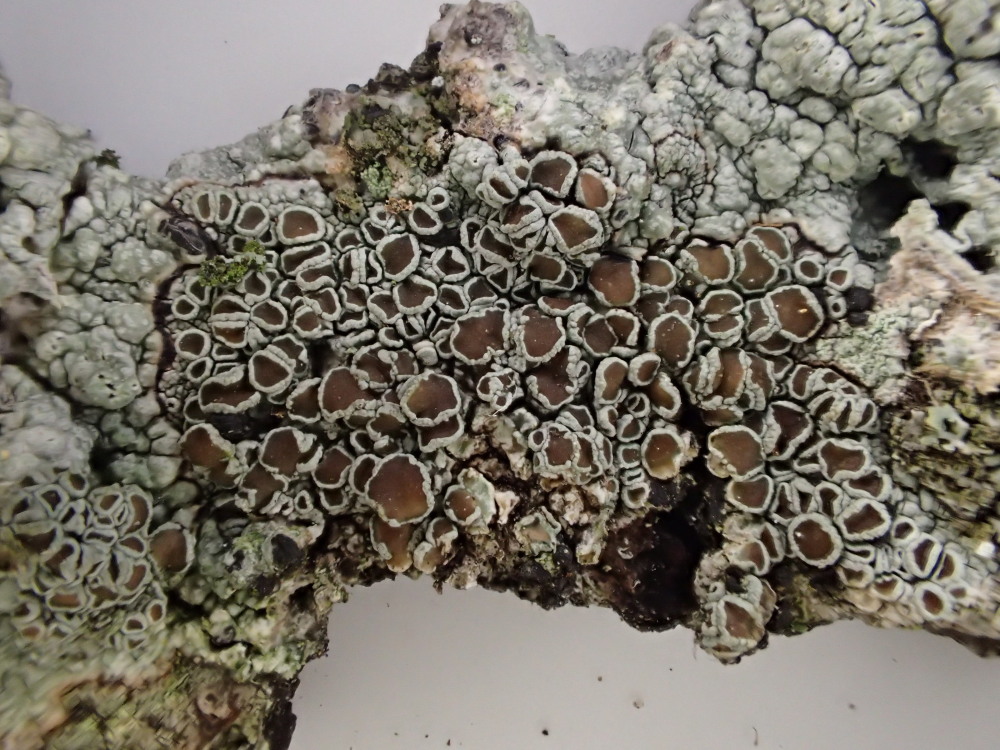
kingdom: Fungi
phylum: Ascomycota
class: Lecanoromycetes
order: Lecanorales
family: Lecanoraceae
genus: Lecanora
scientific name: Lecanora chlarotera
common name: brun kantskivelav
